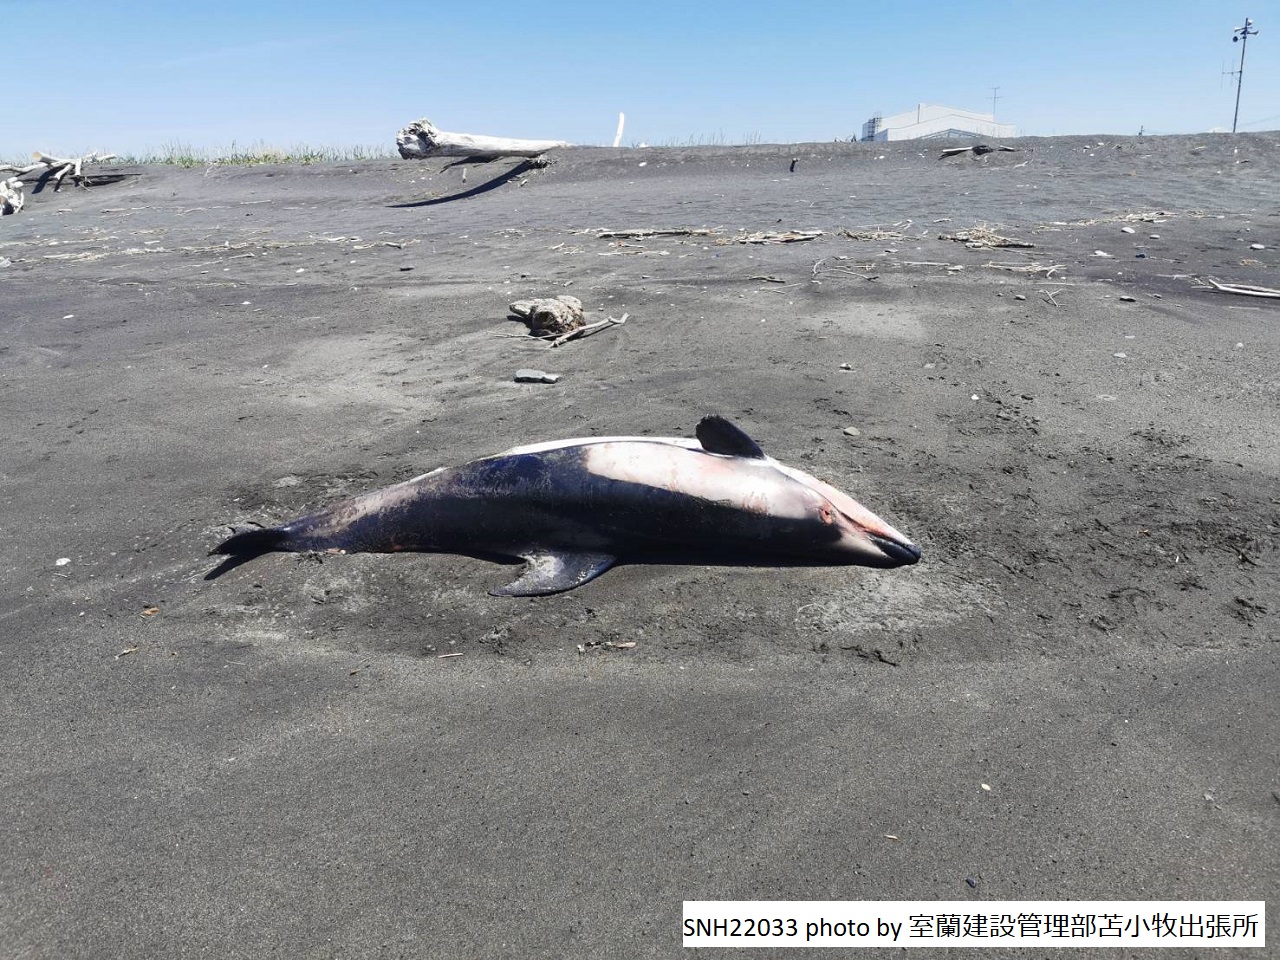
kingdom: Animalia
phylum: Chordata
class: Mammalia
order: Cetacea
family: Delphinidae
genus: Lagenorhynchus
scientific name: Lagenorhynchus obliquidens
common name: Pacific white-sided dolphin
